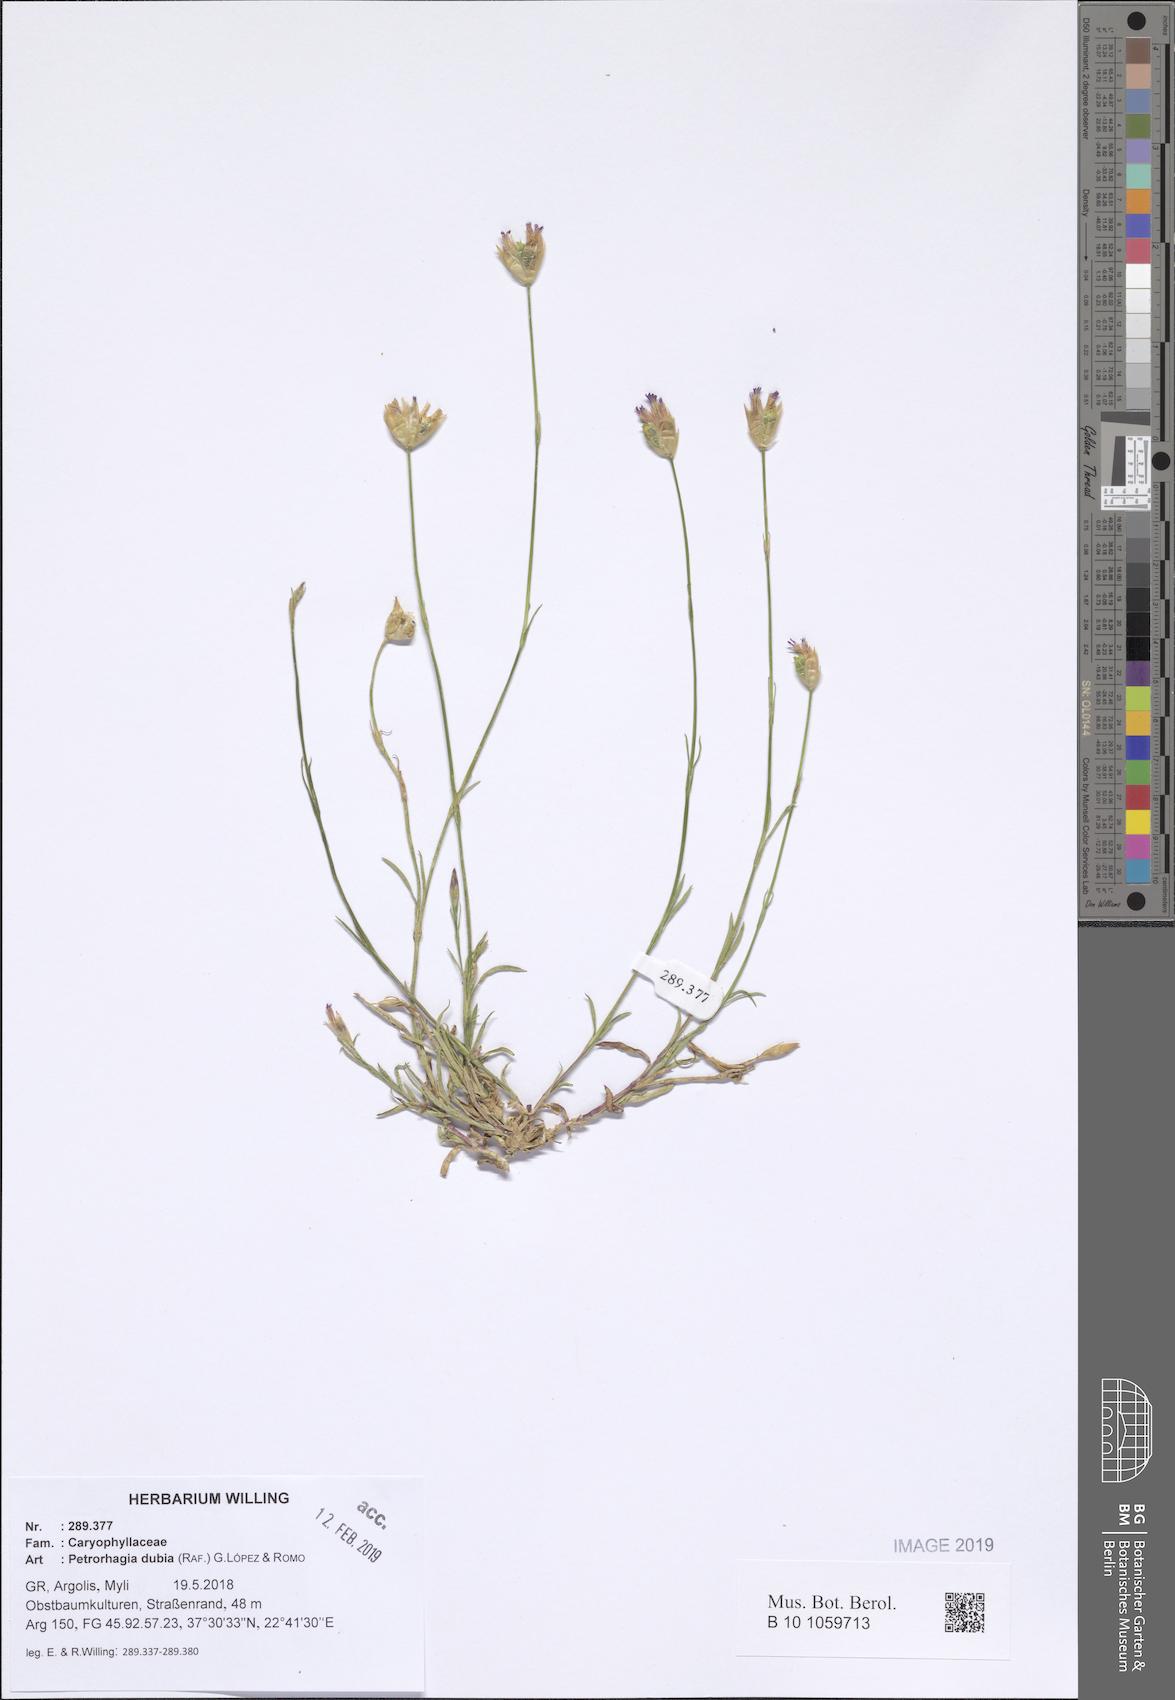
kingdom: Plantae
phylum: Tracheophyta
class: Magnoliopsida
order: Caryophyllales
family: Caryophyllaceae
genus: Petrorhagia
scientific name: Petrorhagia dubia
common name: Hairypink
